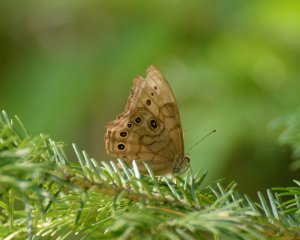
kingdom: Animalia
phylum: Arthropoda
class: Insecta
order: Lepidoptera
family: Nymphalidae
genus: Lethe
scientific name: Lethe anthedon
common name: Northern Pearly-Eye
